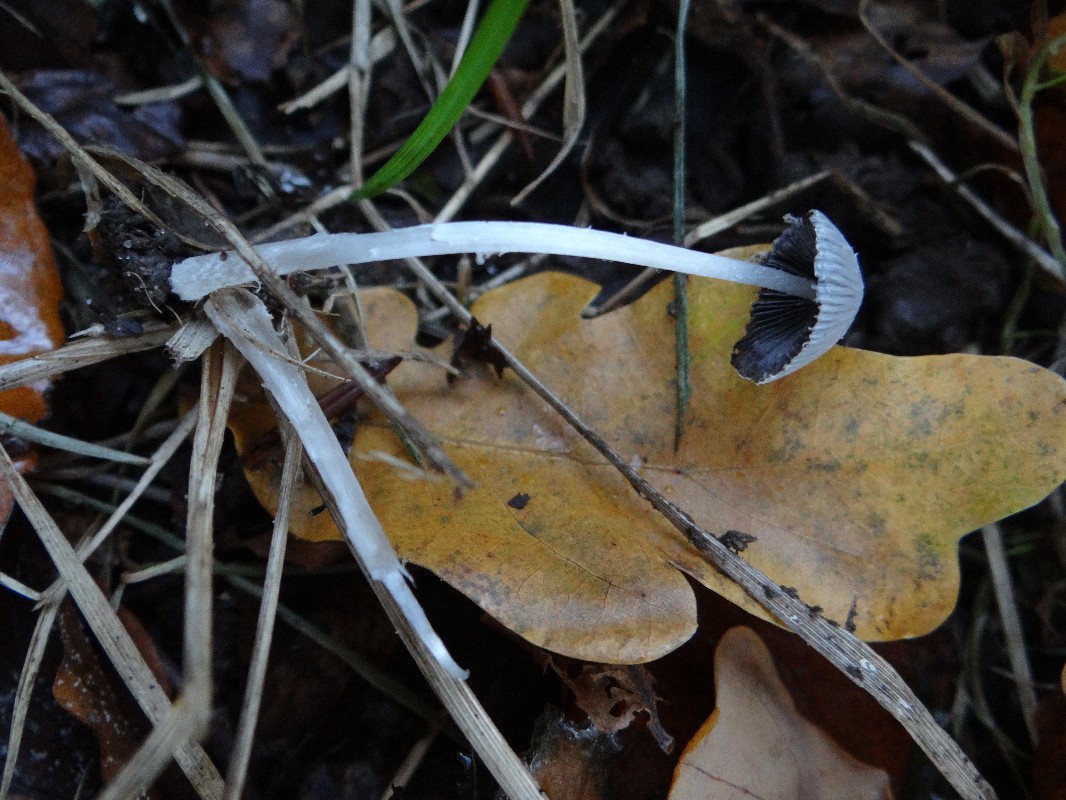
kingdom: Fungi
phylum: Basidiomycota
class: Agaricomycetes
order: Agaricales
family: Psathyrellaceae
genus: Coprinopsis
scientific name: Coprinopsis
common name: blækhat
